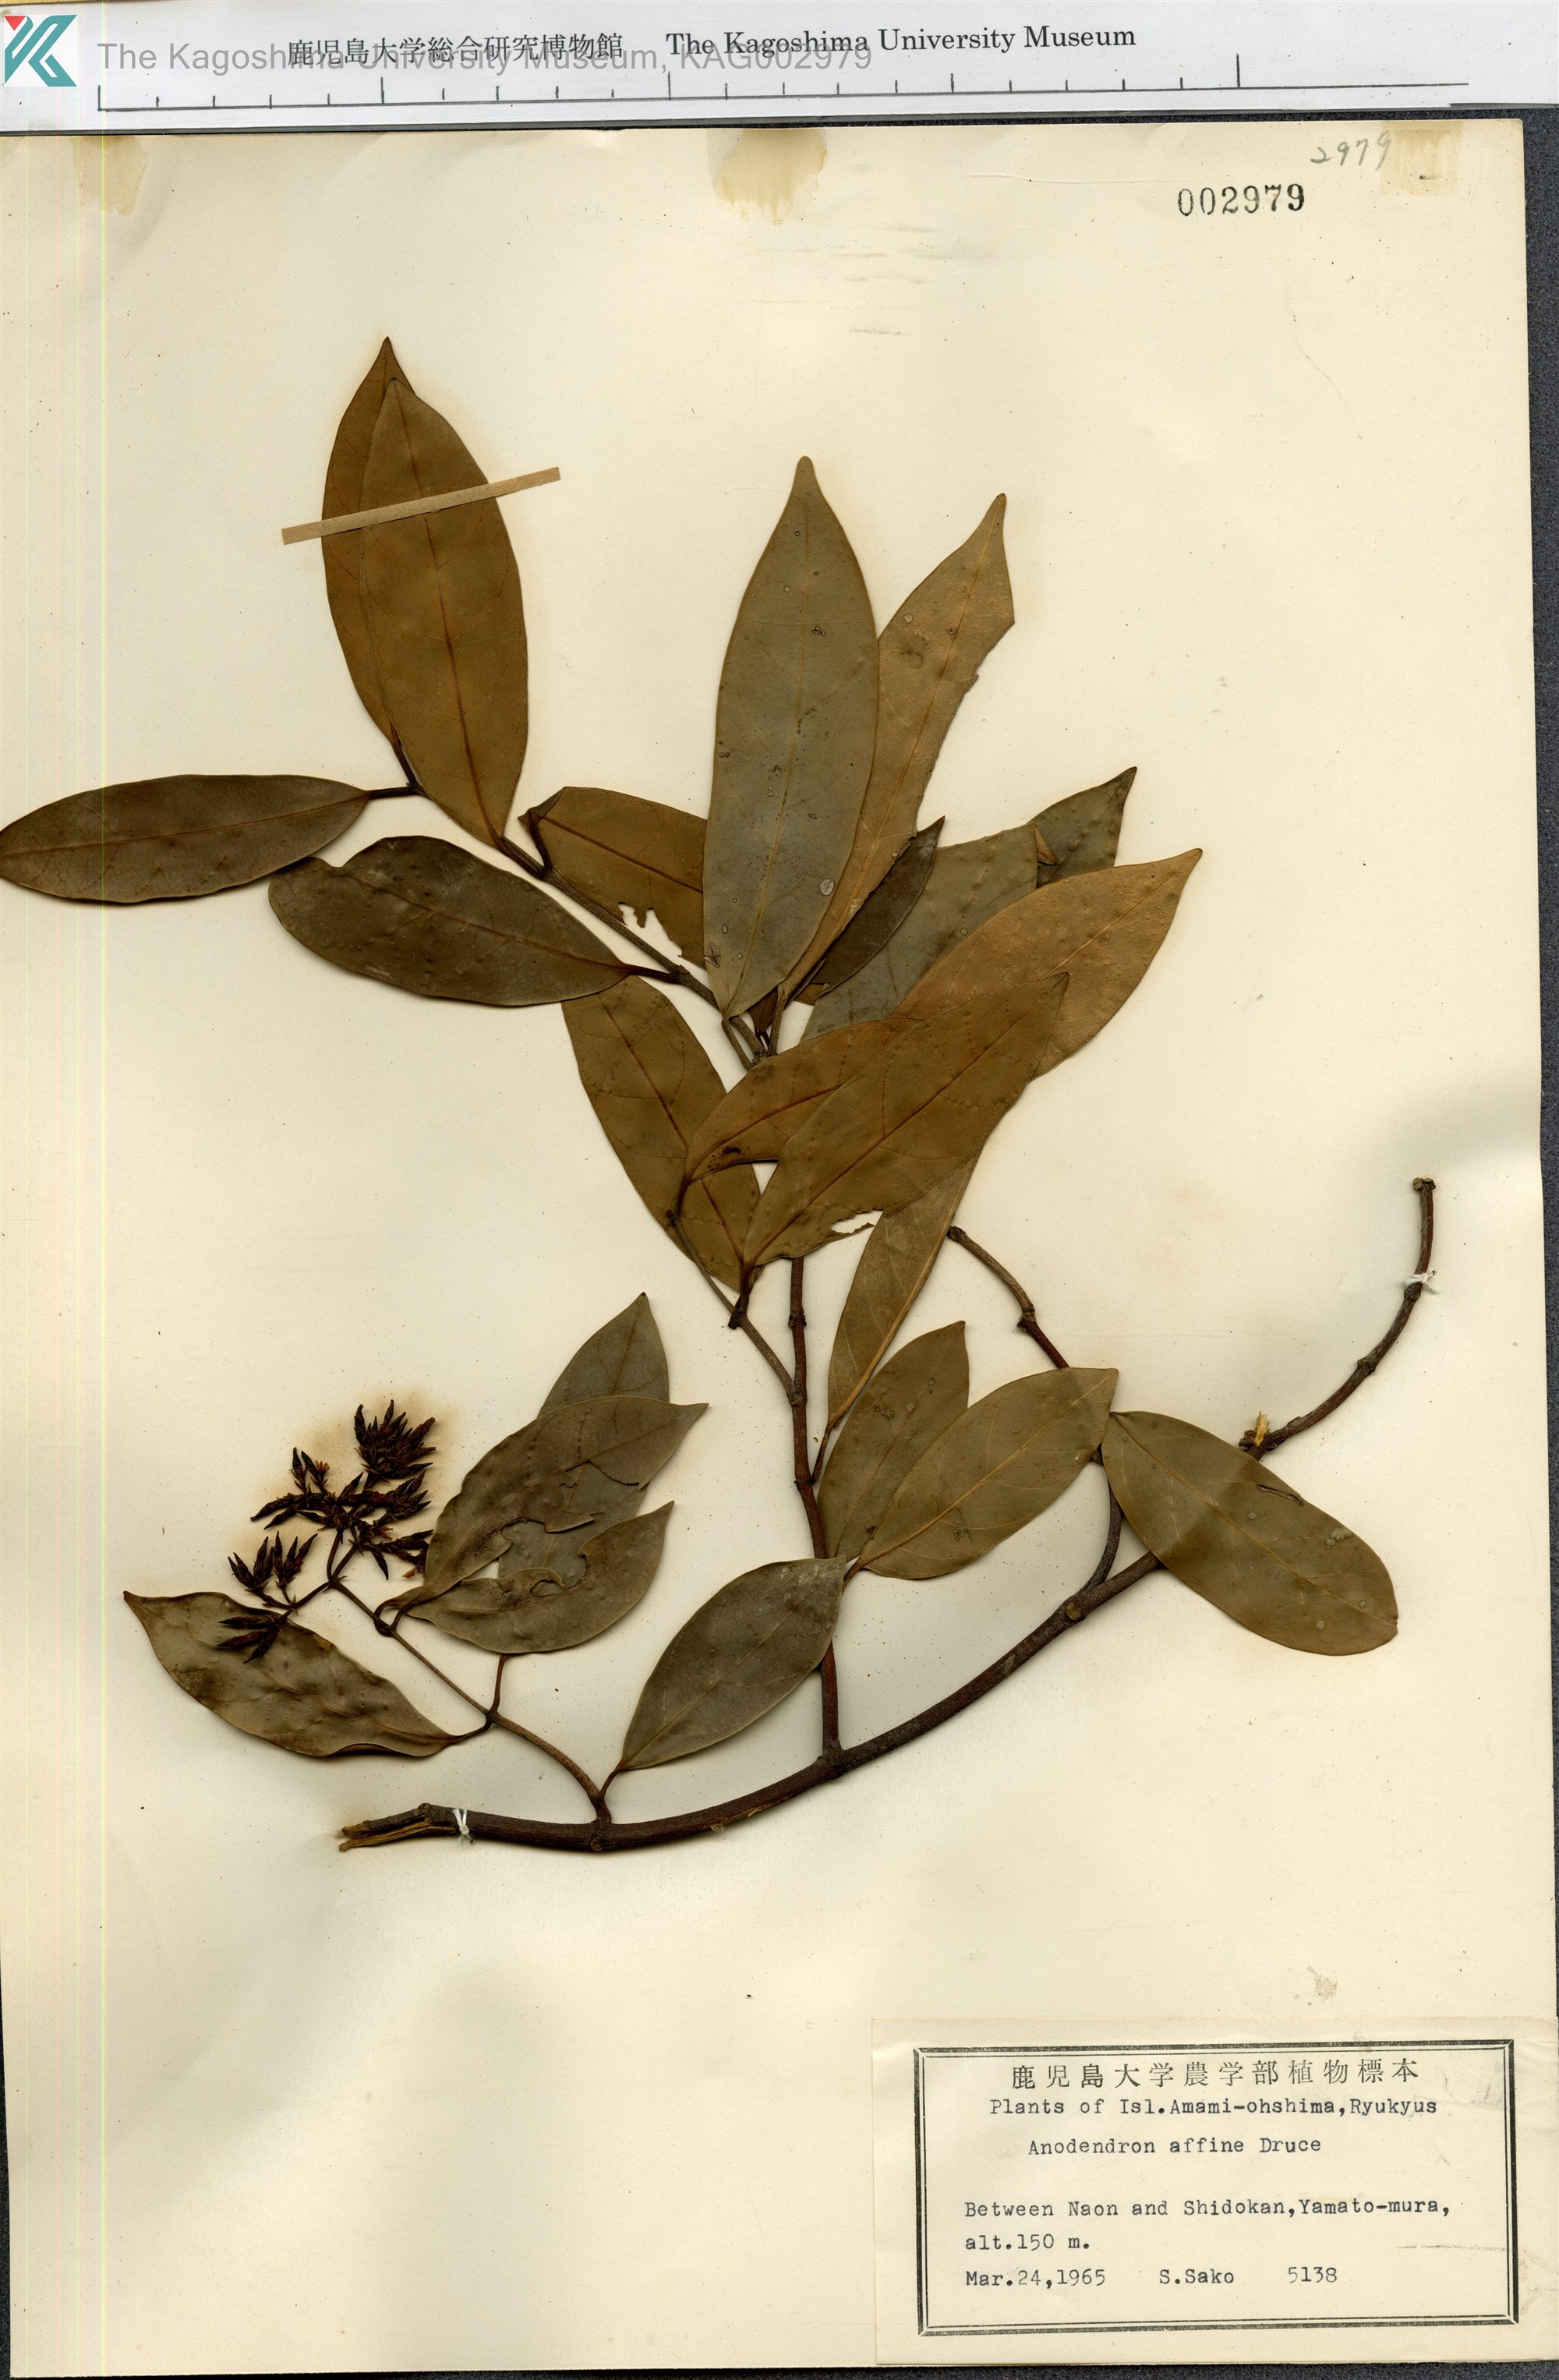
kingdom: Plantae
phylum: Tracheophyta
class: Magnoliopsida
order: Gentianales
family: Apocynaceae
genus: Anodendron
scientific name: Anodendron affine
